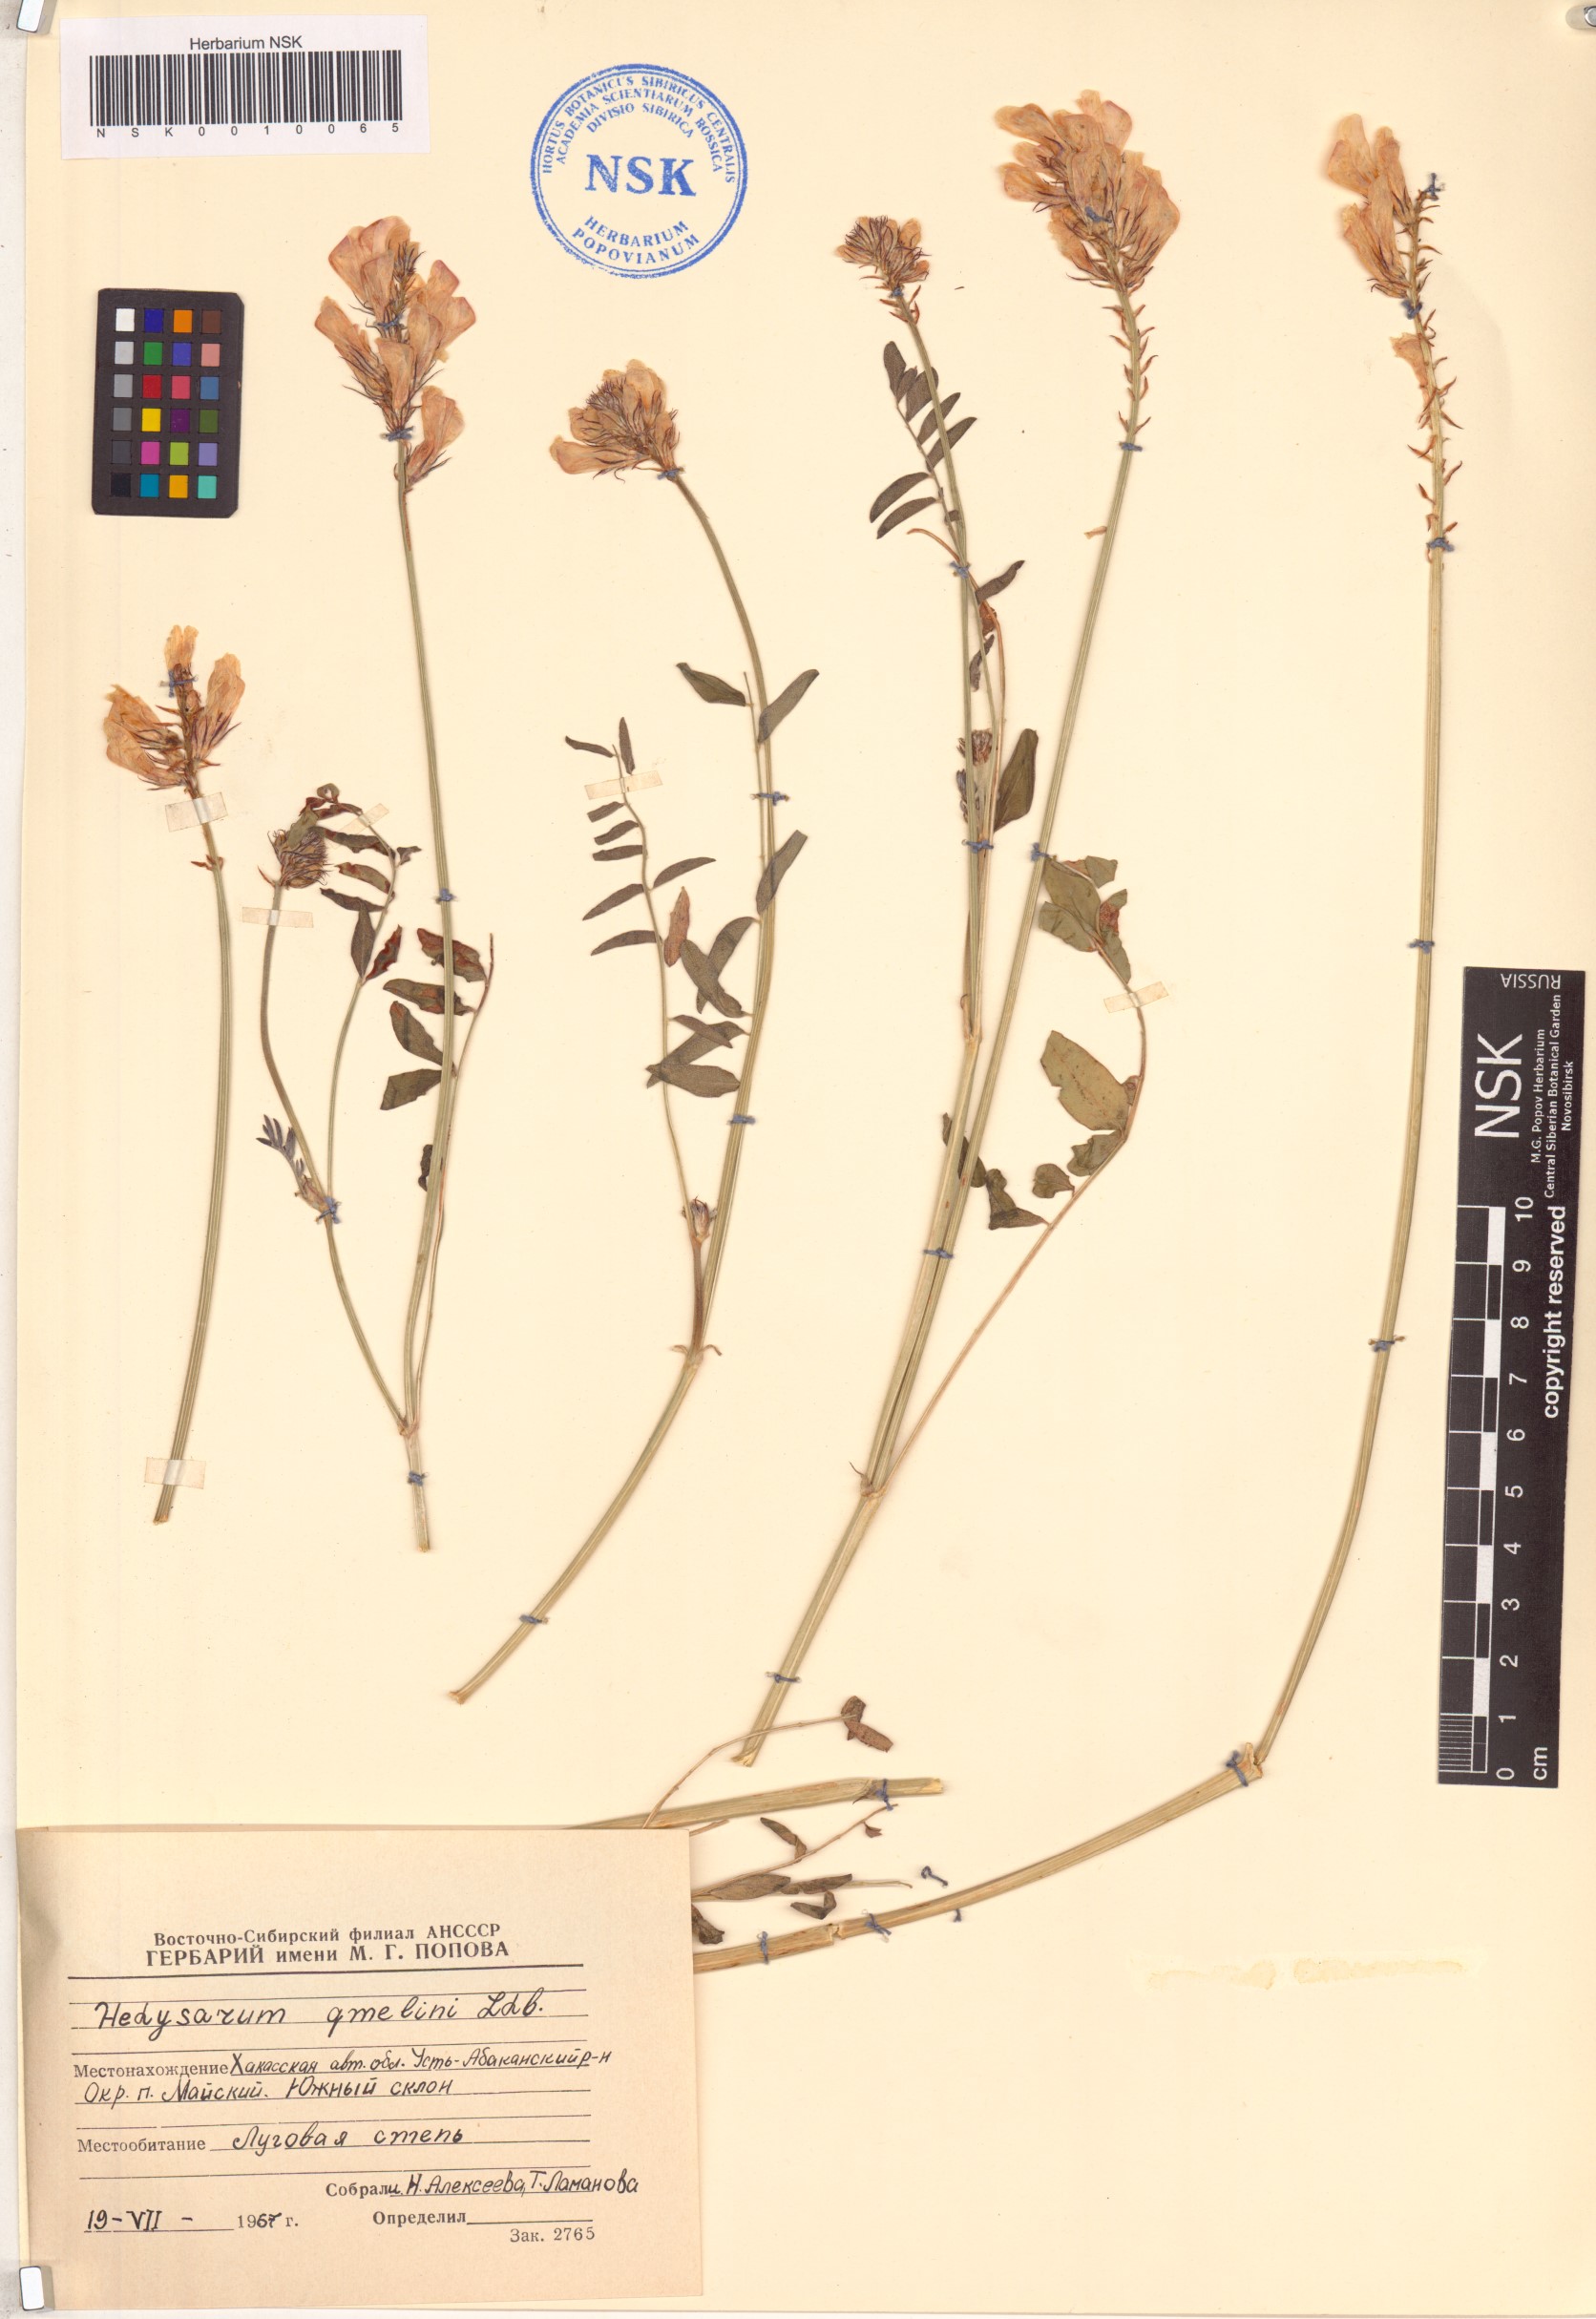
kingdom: Plantae
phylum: Tracheophyta
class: Magnoliopsida
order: Fabales
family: Fabaceae
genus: Hedysarum
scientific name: Hedysarum gmelinii
